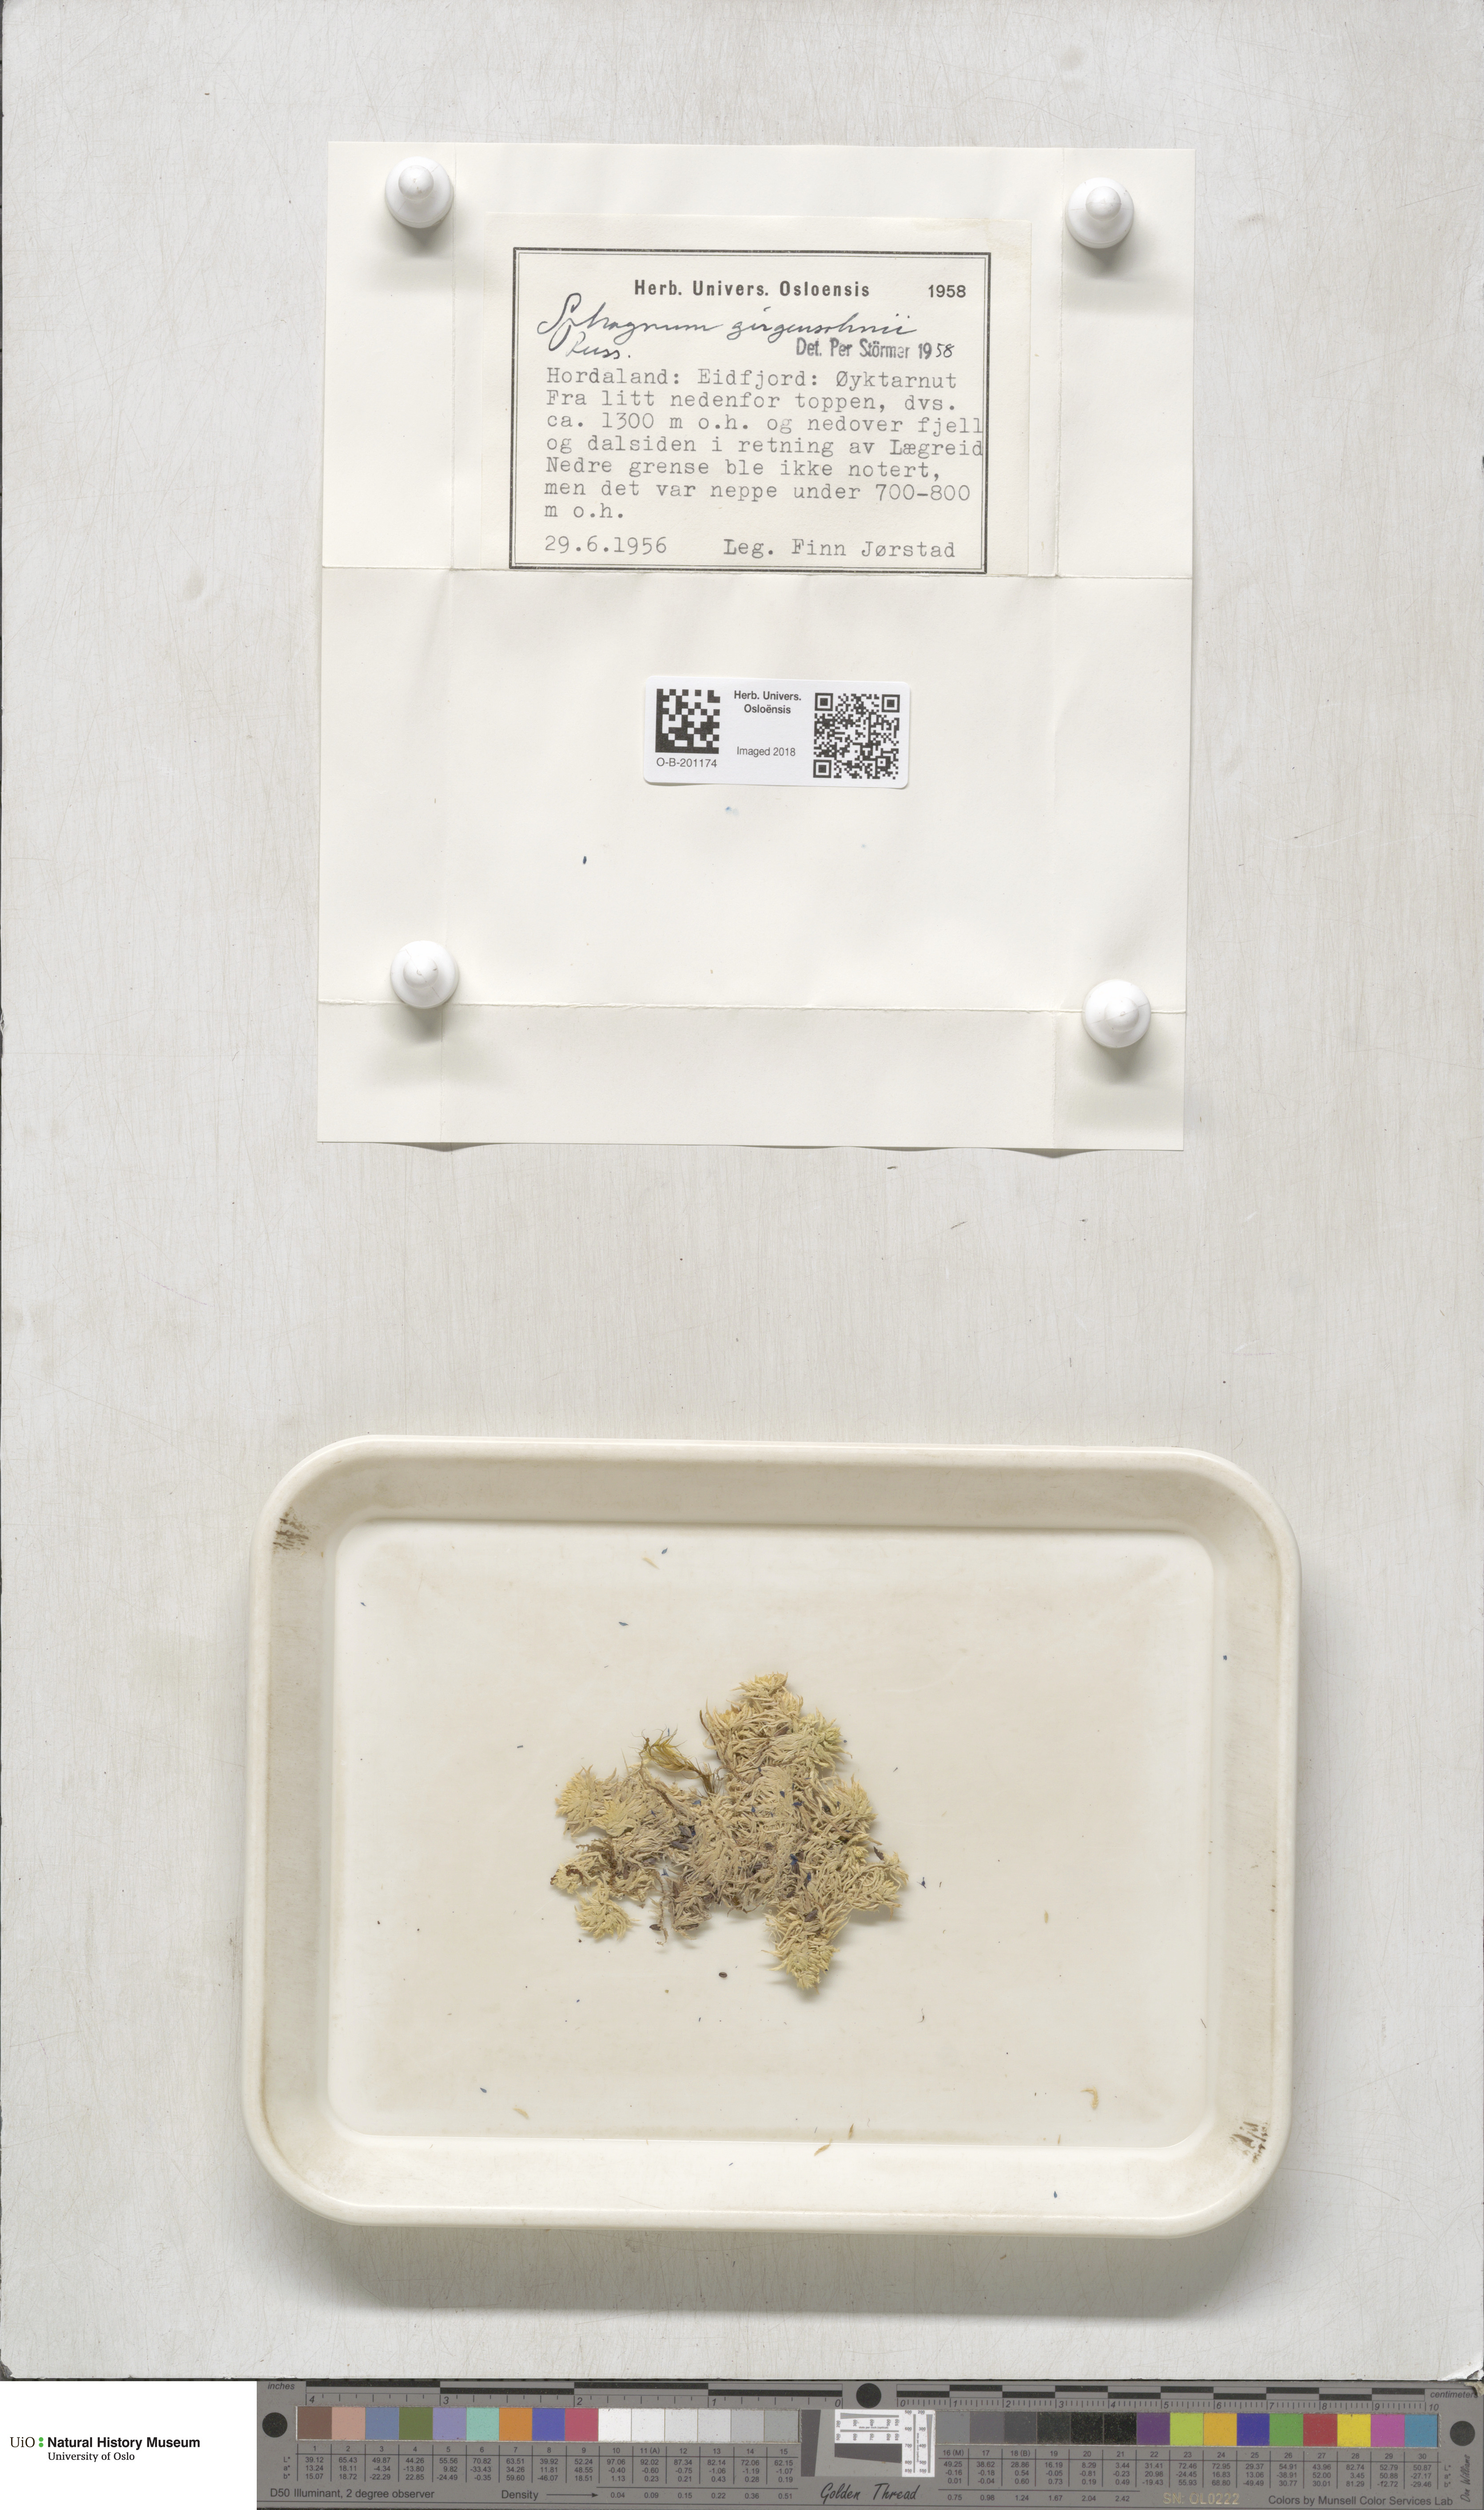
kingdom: Plantae
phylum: Bryophyta
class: Sphagnopsida
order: Sphagnales
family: Sphagnaceae
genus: Sphagnum
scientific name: Sphagnum girgensohnii
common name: Girgensohn's peat moss
